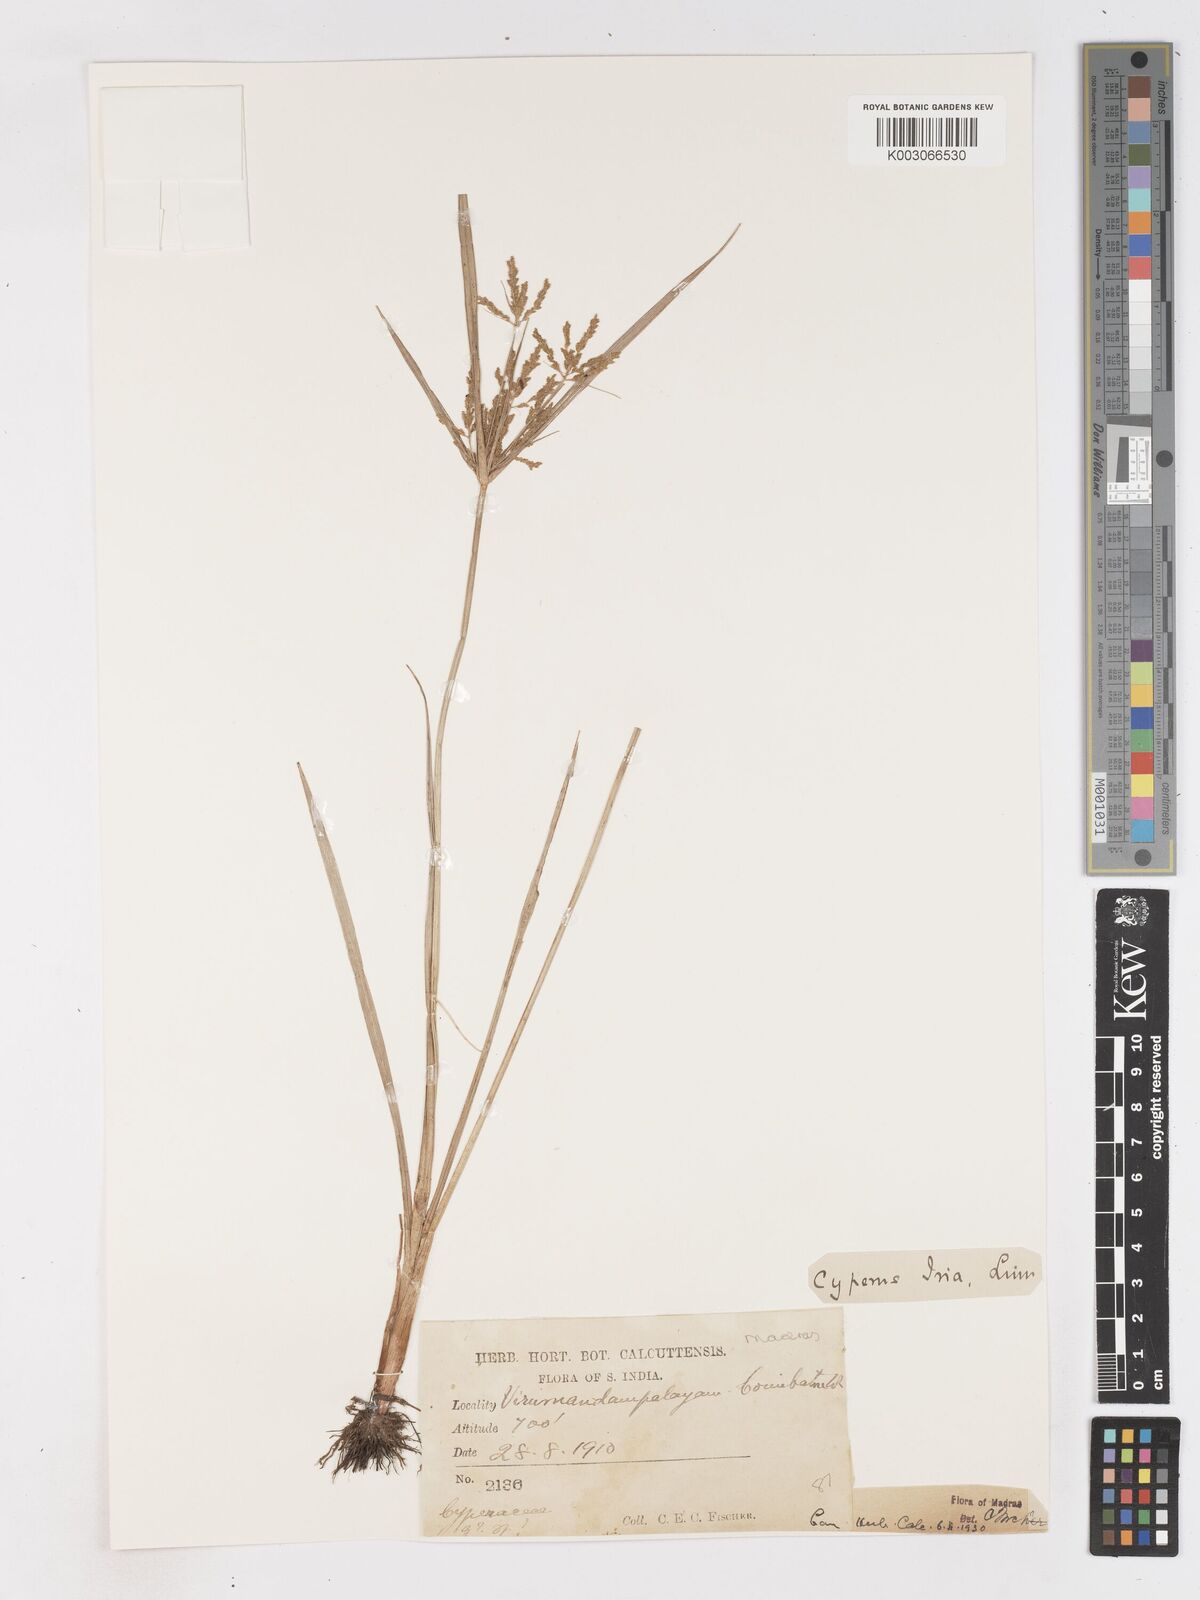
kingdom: Plantae
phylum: Tracheophyta
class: Liliopsida
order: Poales
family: Cyperaceae
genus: Cyperus
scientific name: Cyperus iria
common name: Ricefield flatsedge
